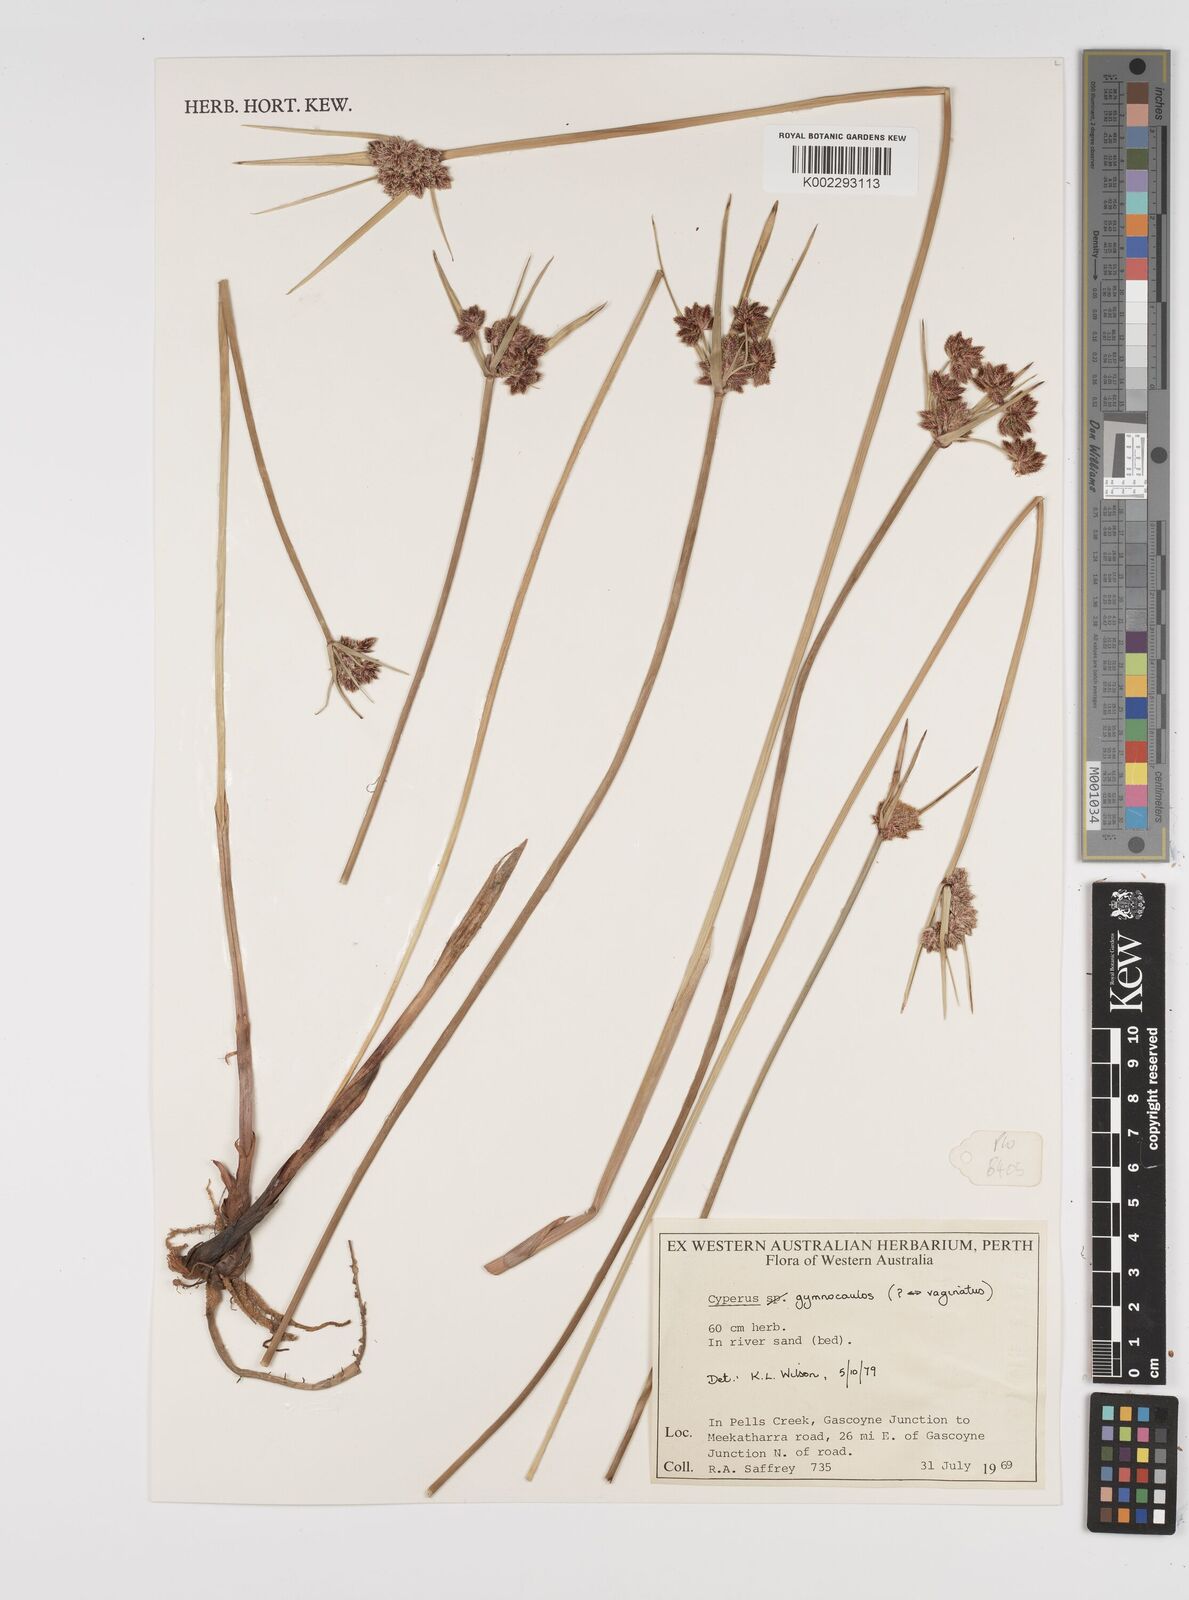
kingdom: Plantae
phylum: Tracheophyta
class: Liliopsida
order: Poales
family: Cyperaceae
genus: Cyperus
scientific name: Cyperus gymnocaulos
